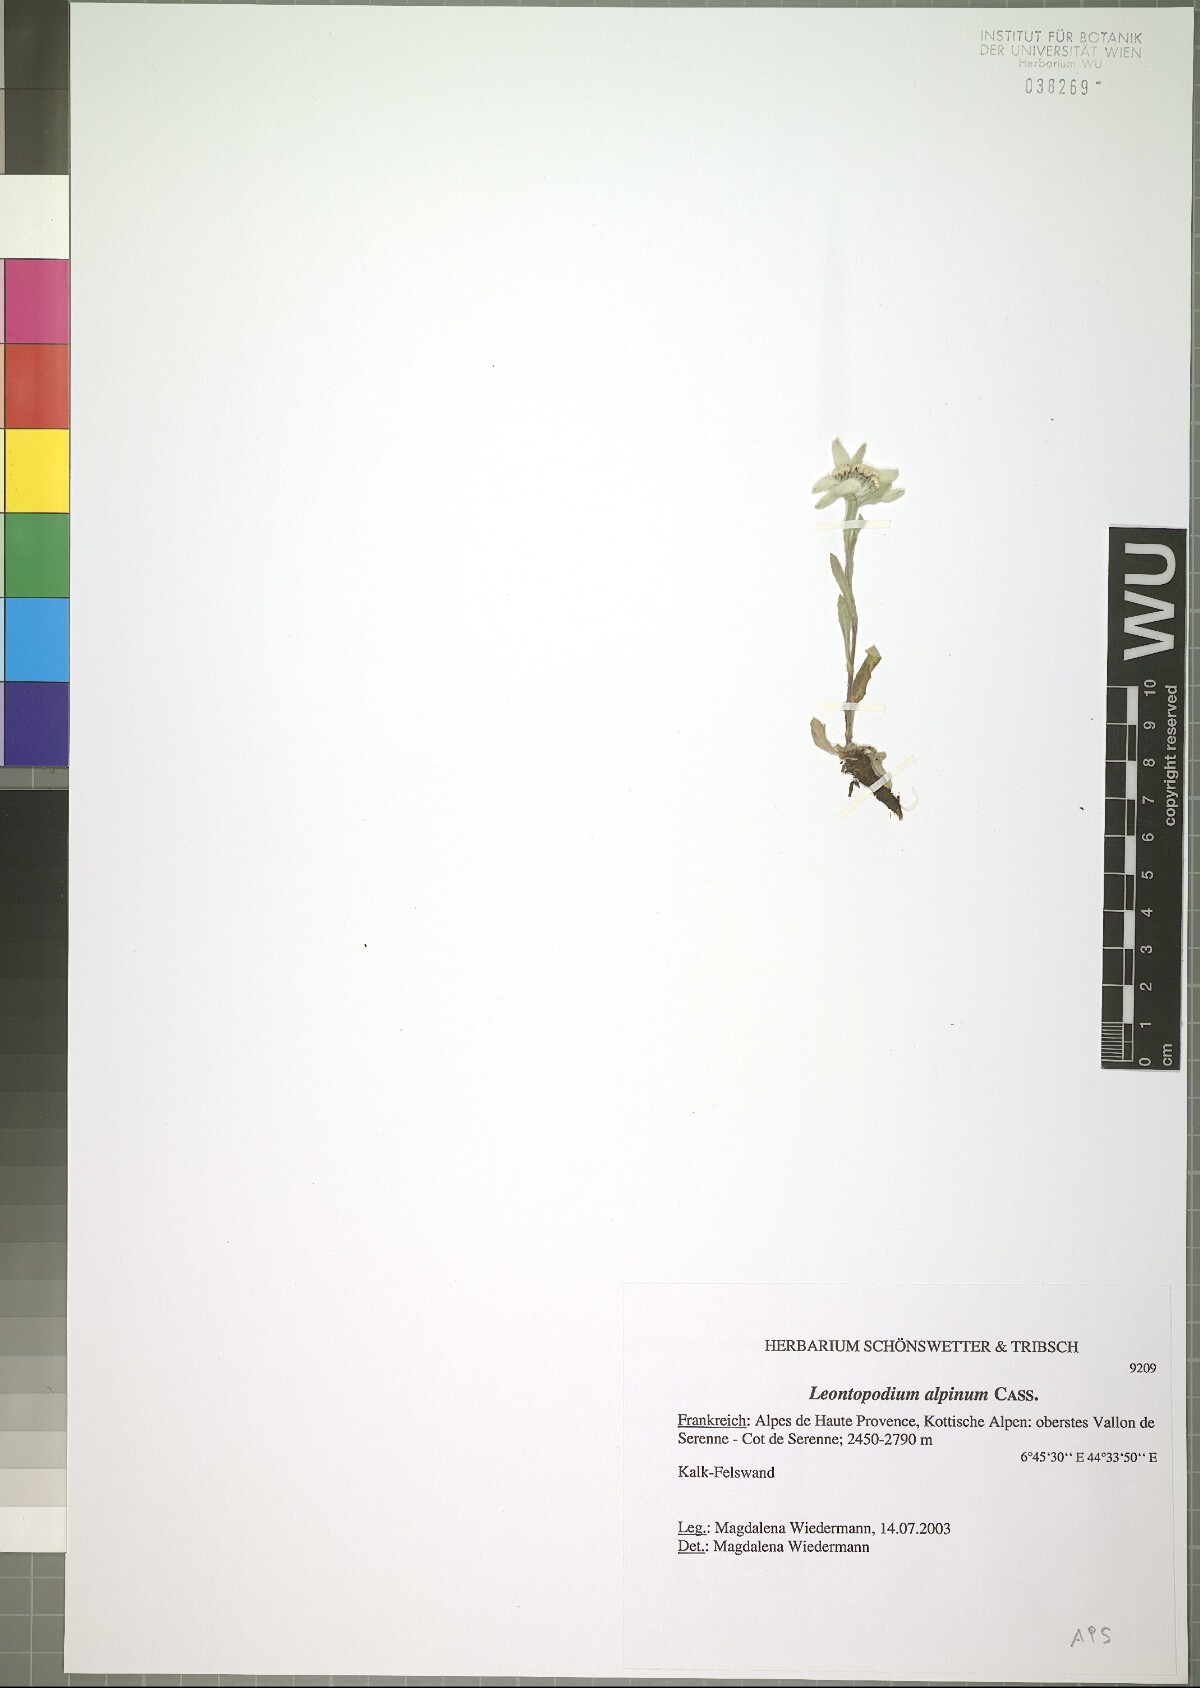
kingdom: Plantae
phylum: Tracheophyta
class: Magnoliopsida
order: Asterales
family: Asteraceae
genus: Leontopodium
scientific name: Leontopodium nivale
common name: Edelweiss
